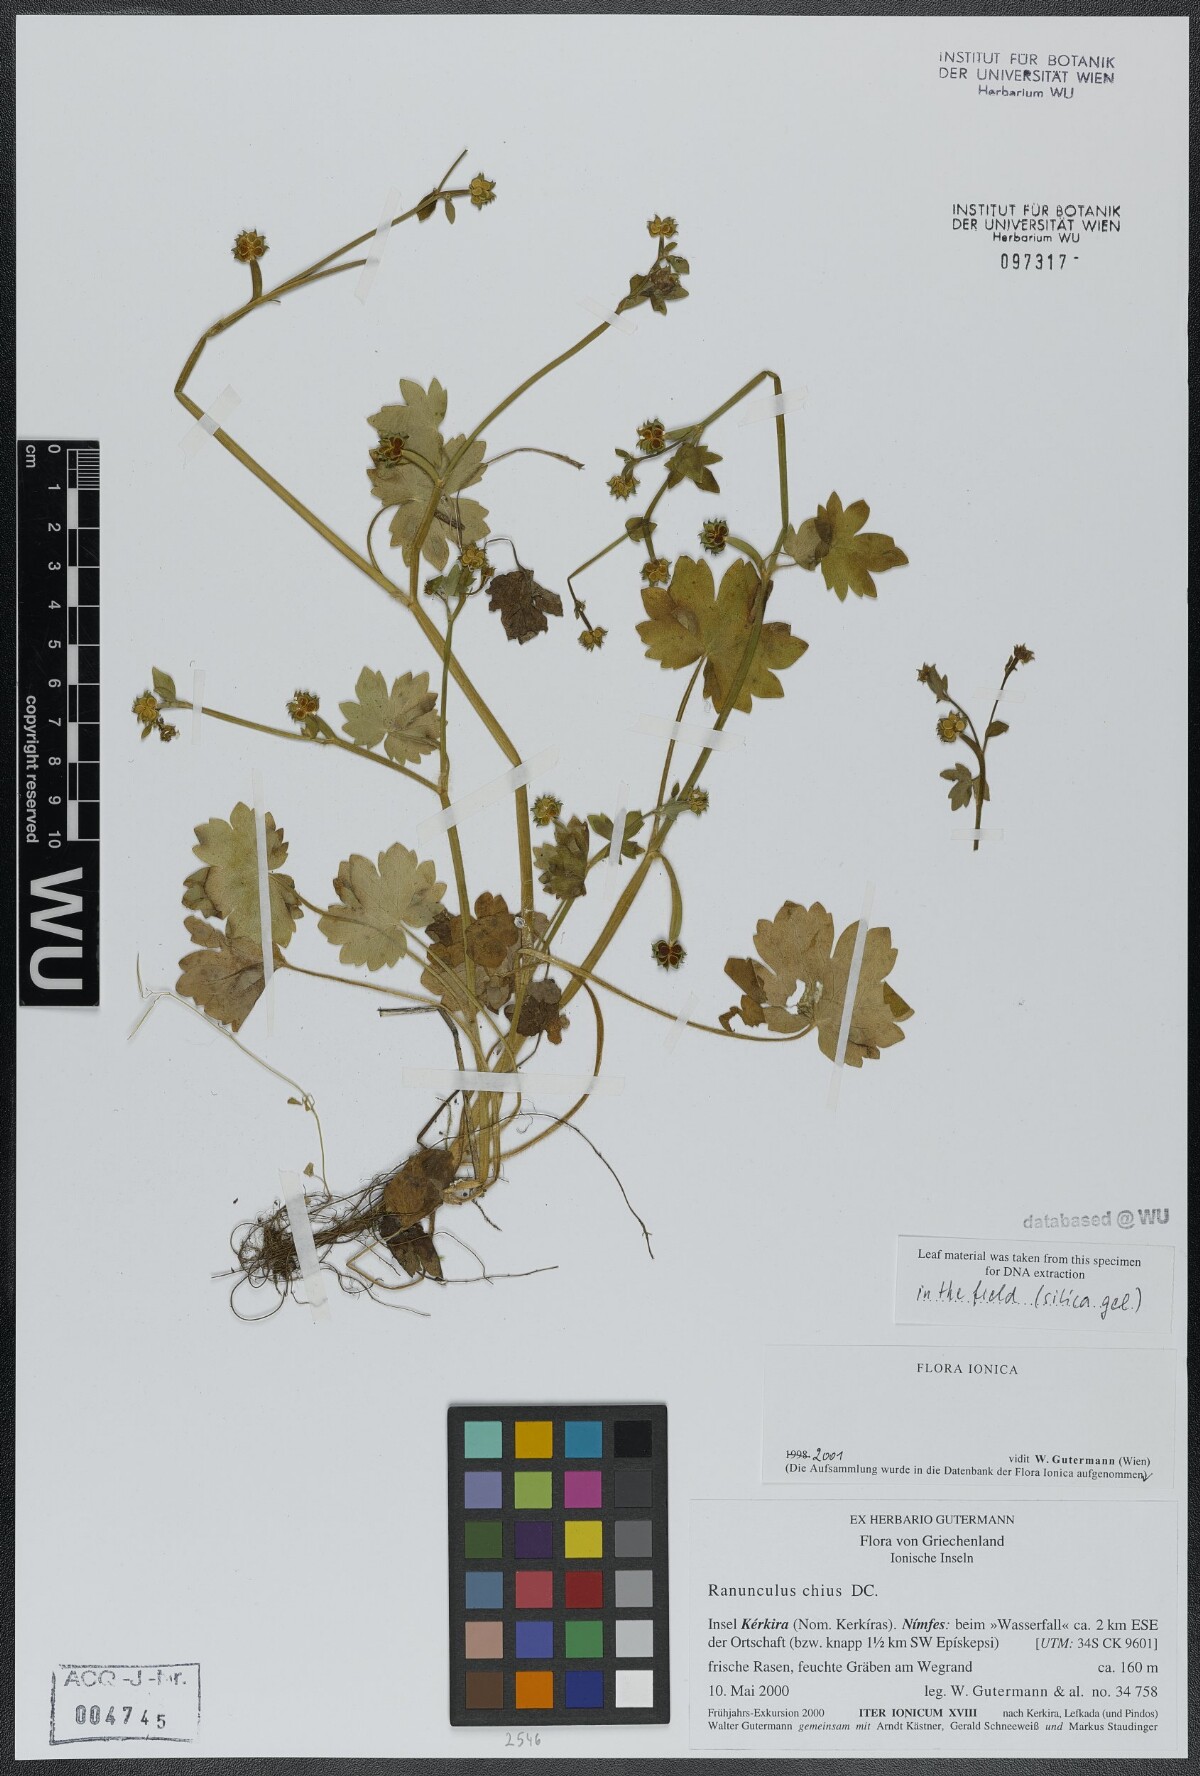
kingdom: Plantae
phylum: Tracheophyta
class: Magnoliopsida
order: Ranunculales
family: Ranunculaceae
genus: Ranunculus
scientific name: Ranunculus chius
